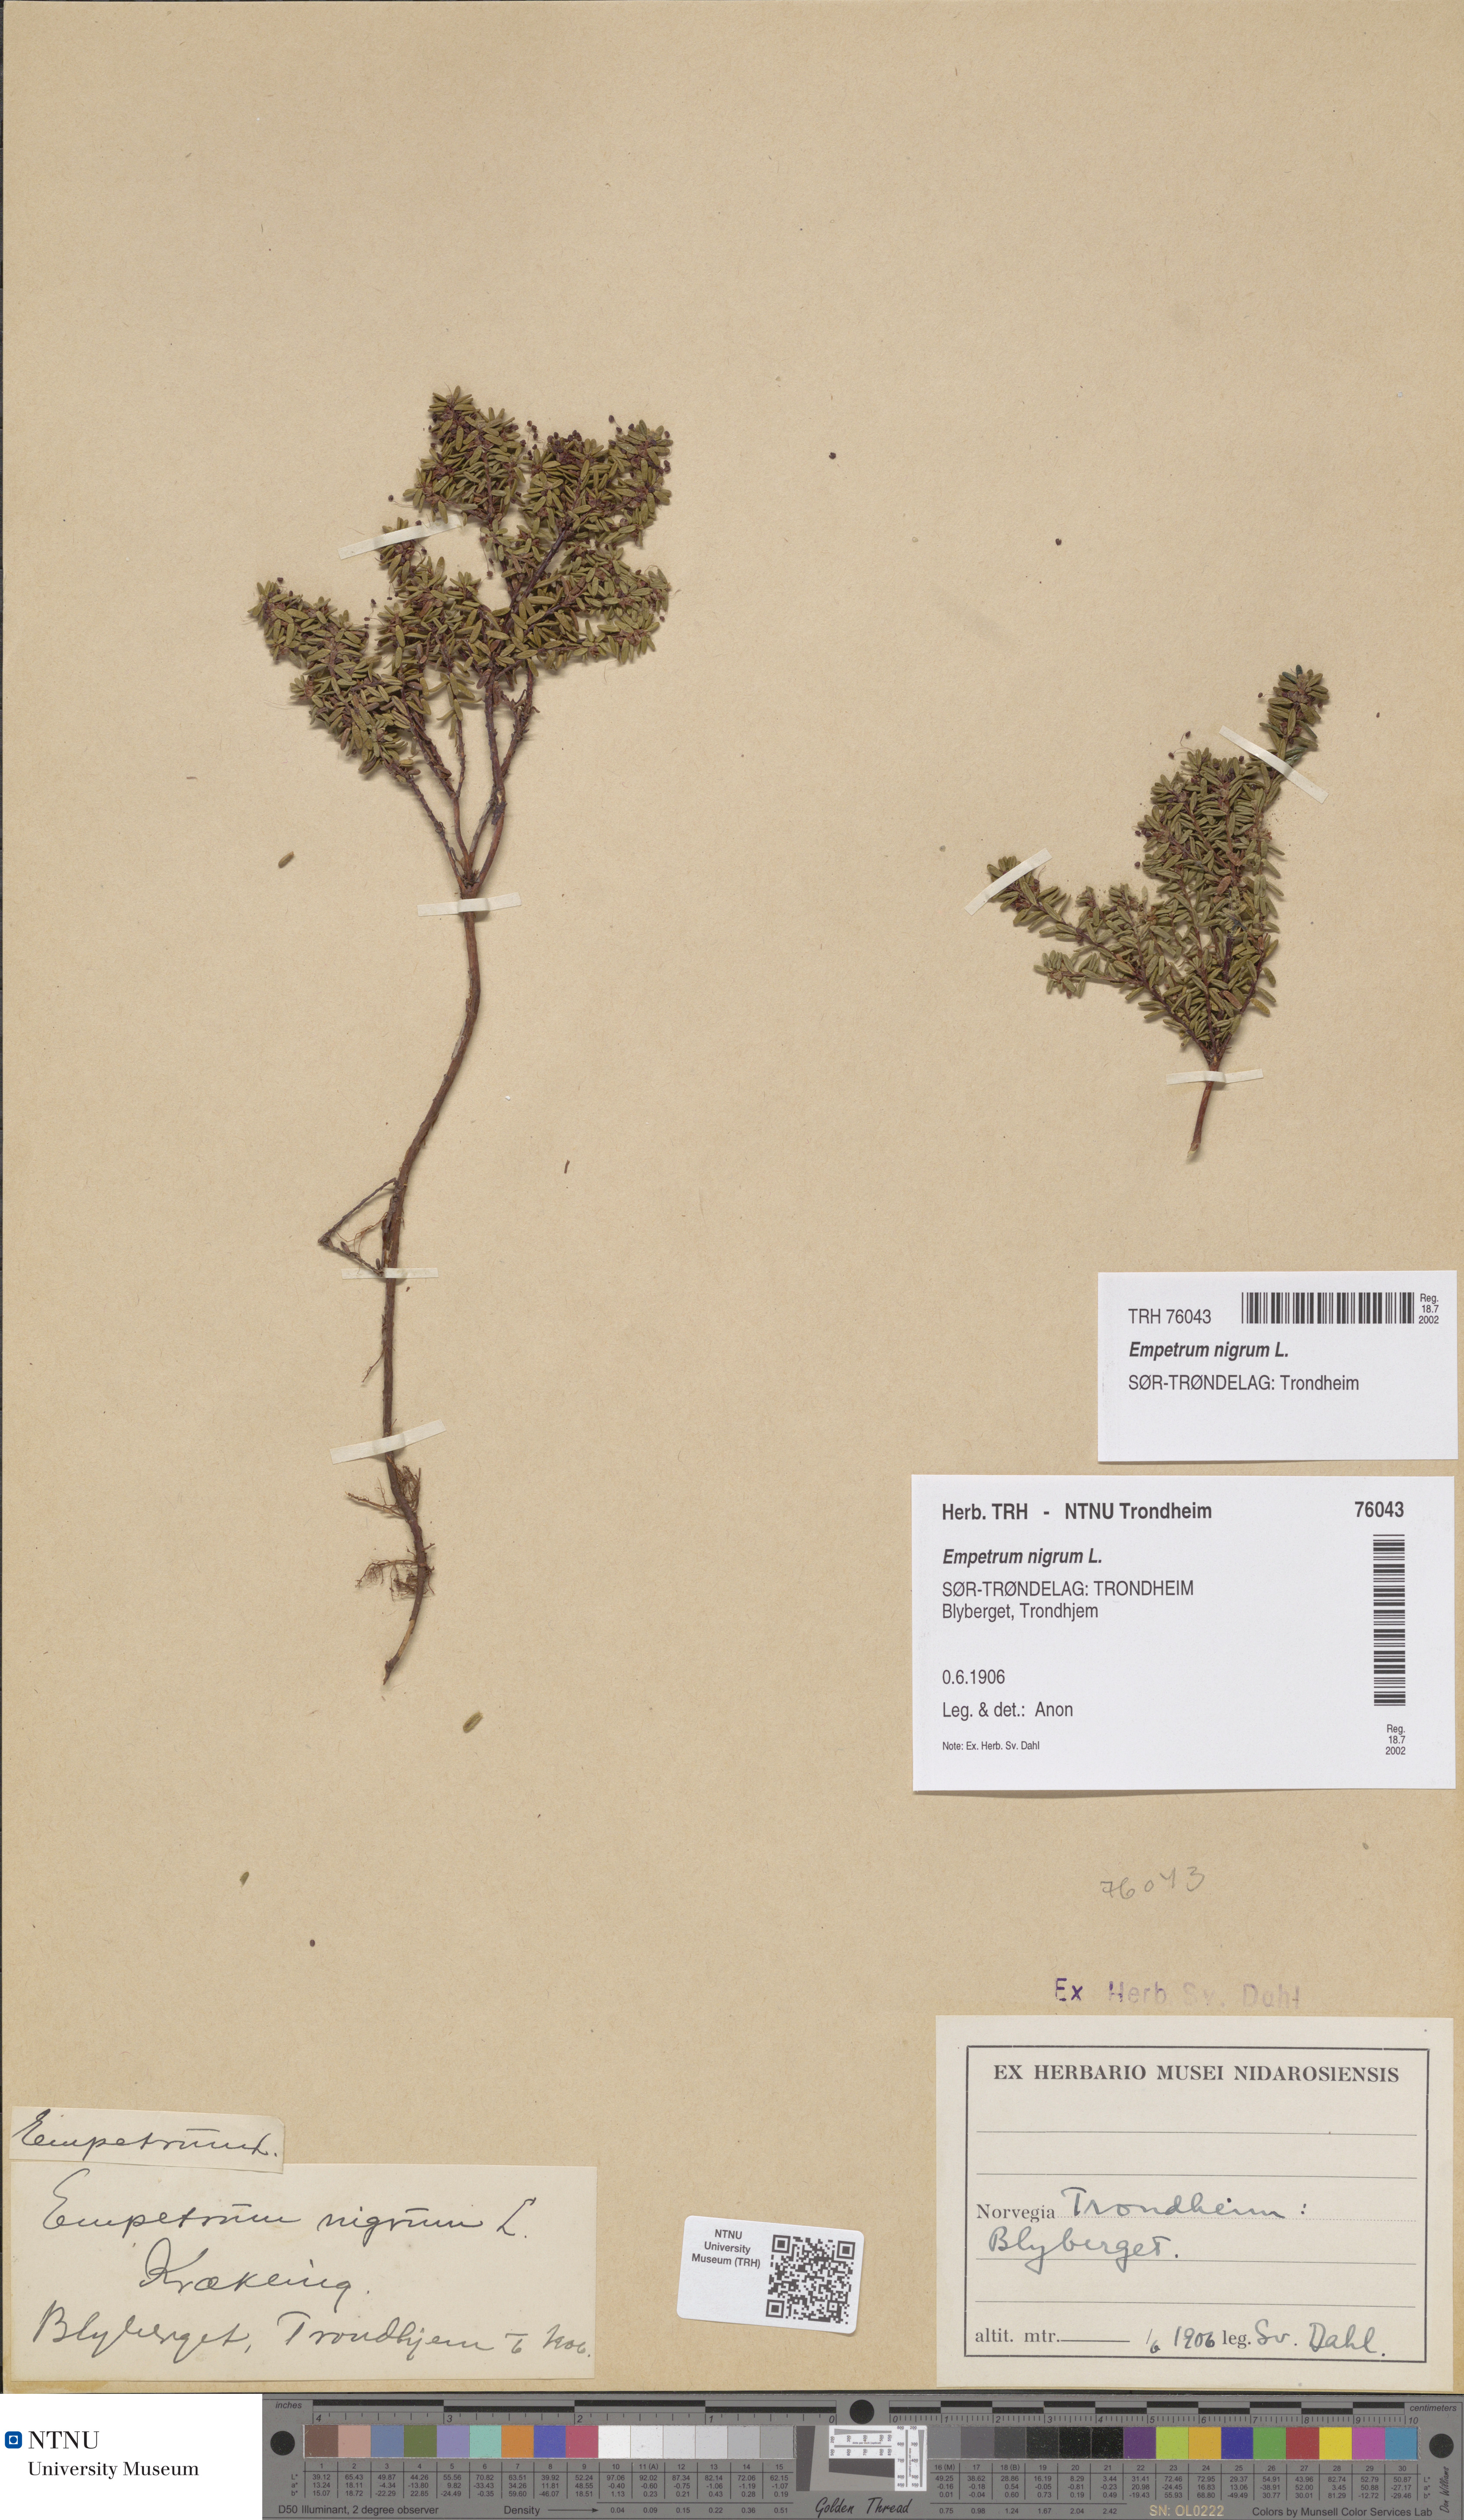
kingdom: Plantae
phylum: Tracheophyta
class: Magnoliopsida
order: Ericales
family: Ericaceae
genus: Empetrum
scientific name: Empetrum nigrum
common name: Black crowberry
